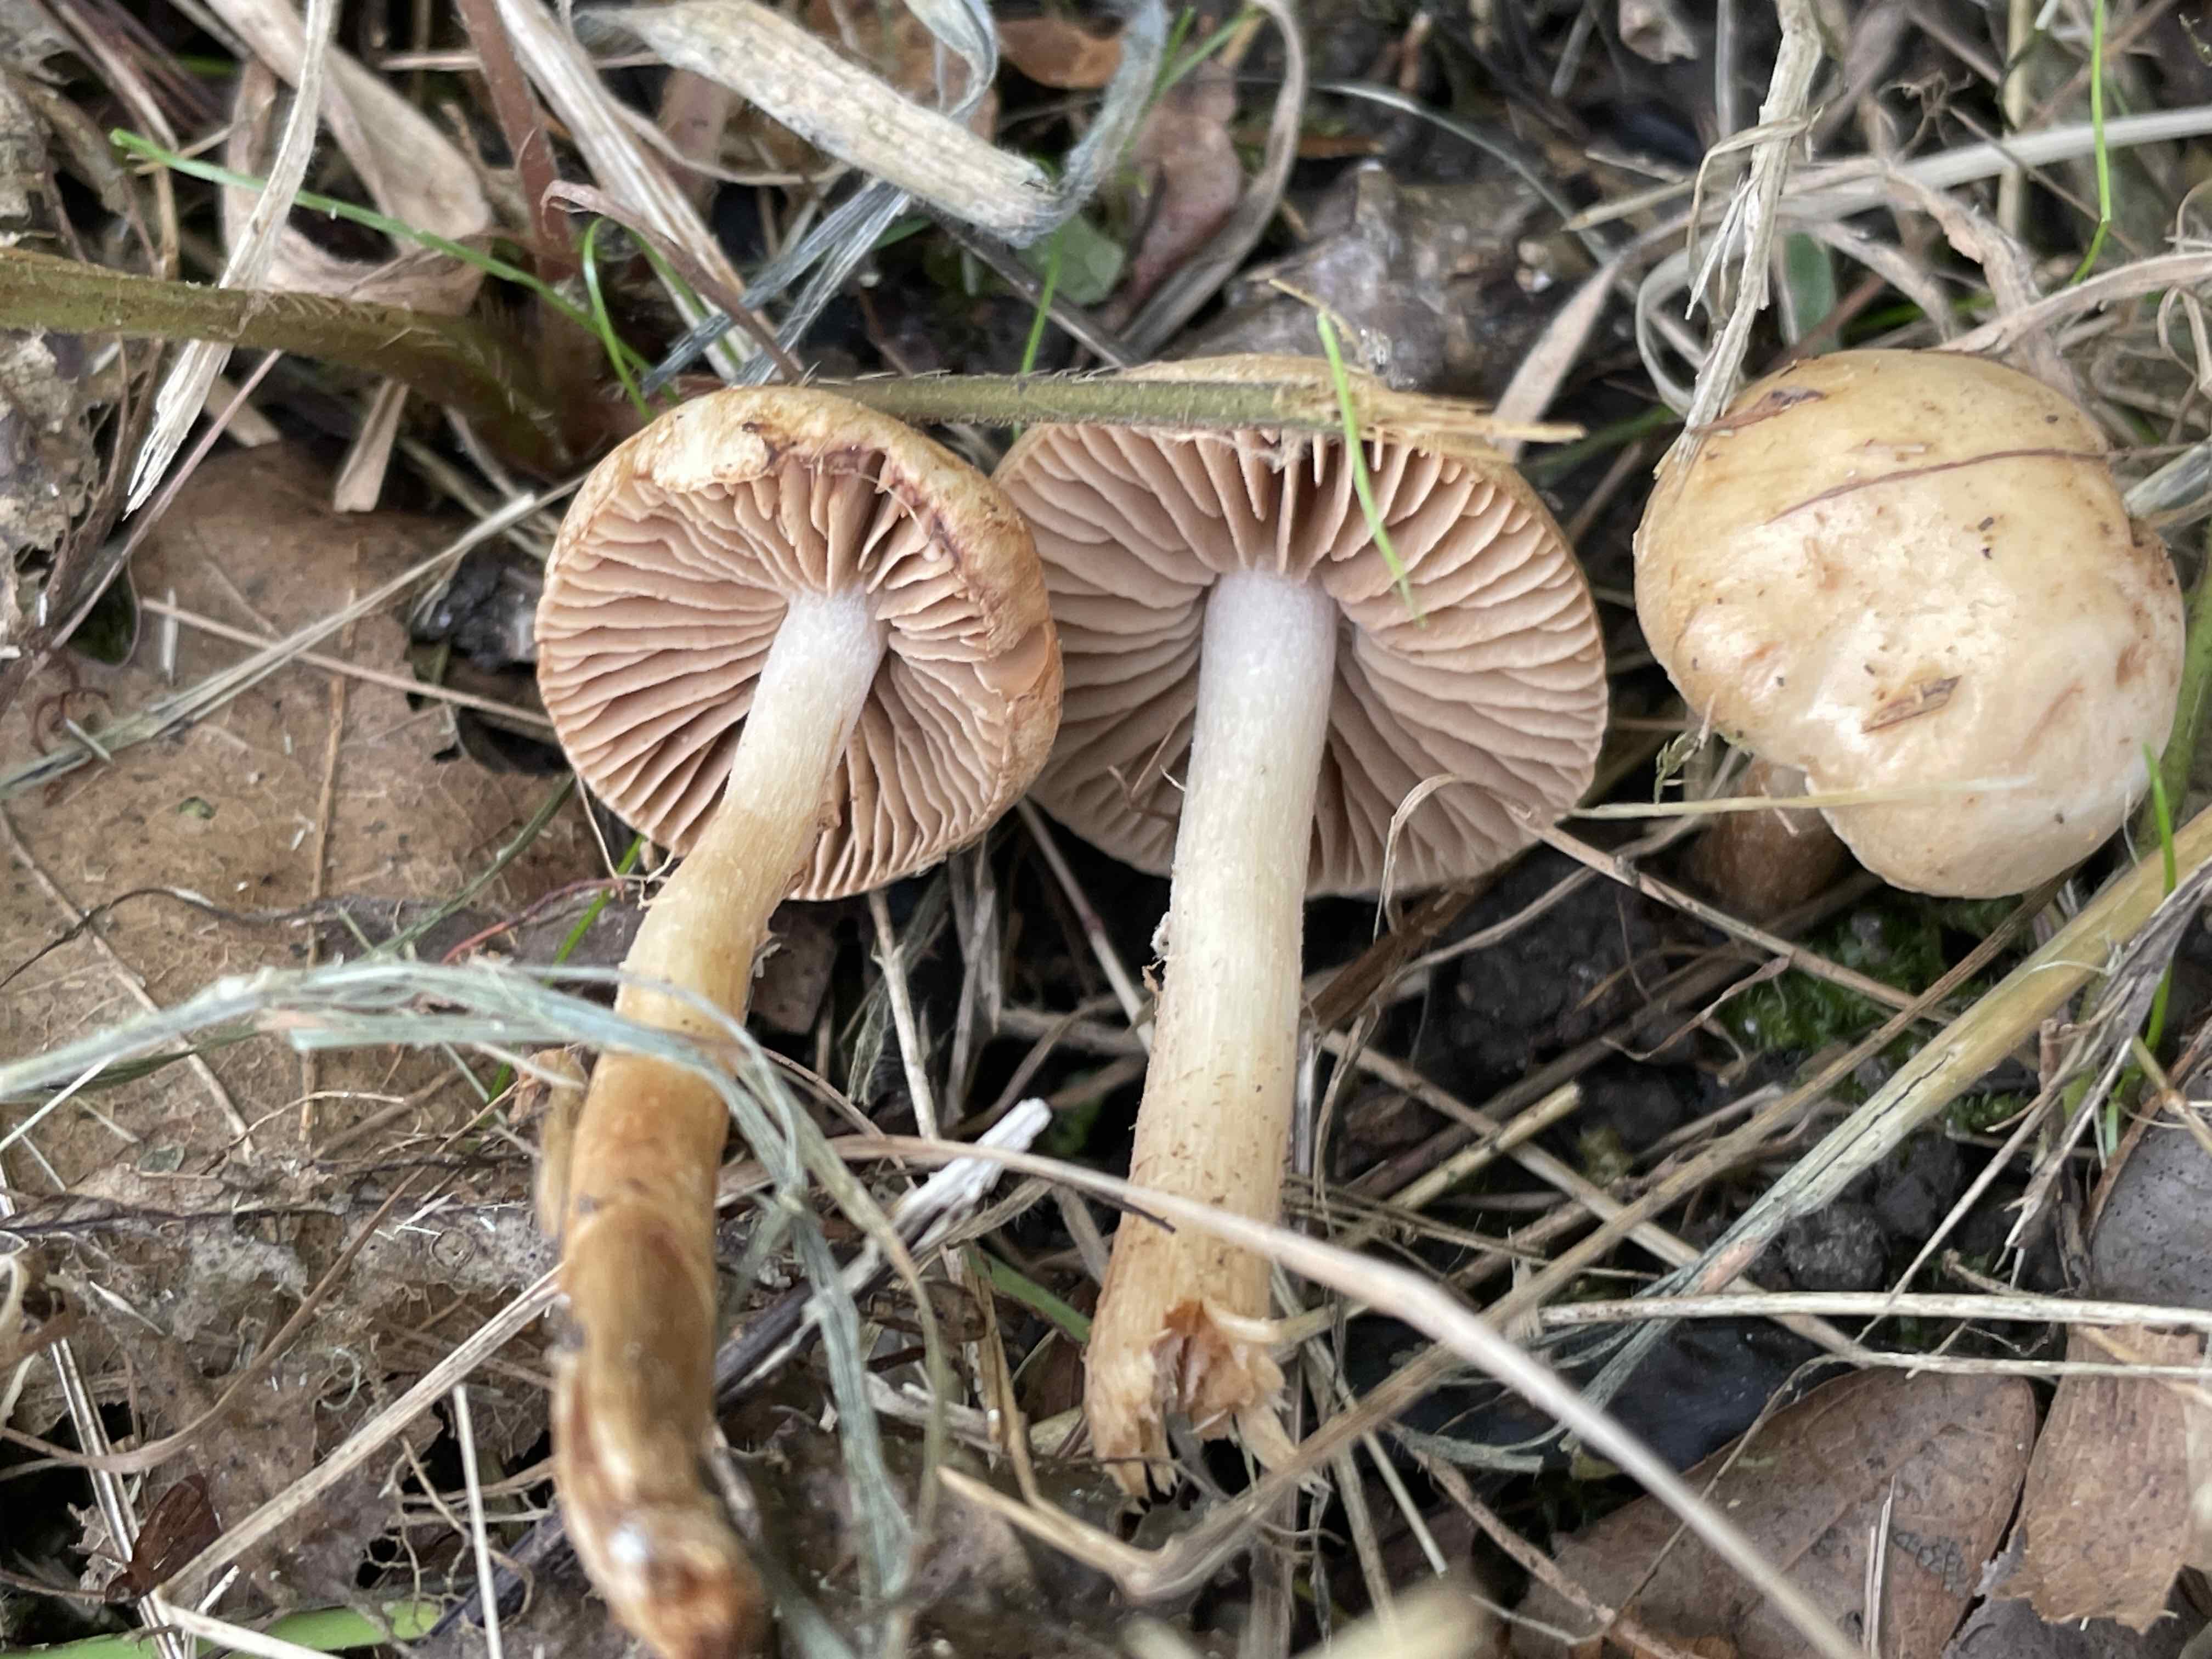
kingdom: Fungi
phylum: Basidiomycota
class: Agaricomycetes
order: Agaricales
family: Hymenogastraceae
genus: Hebeloma
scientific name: Hebeloma sacchariolens
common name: sødtduftende tåreblad
